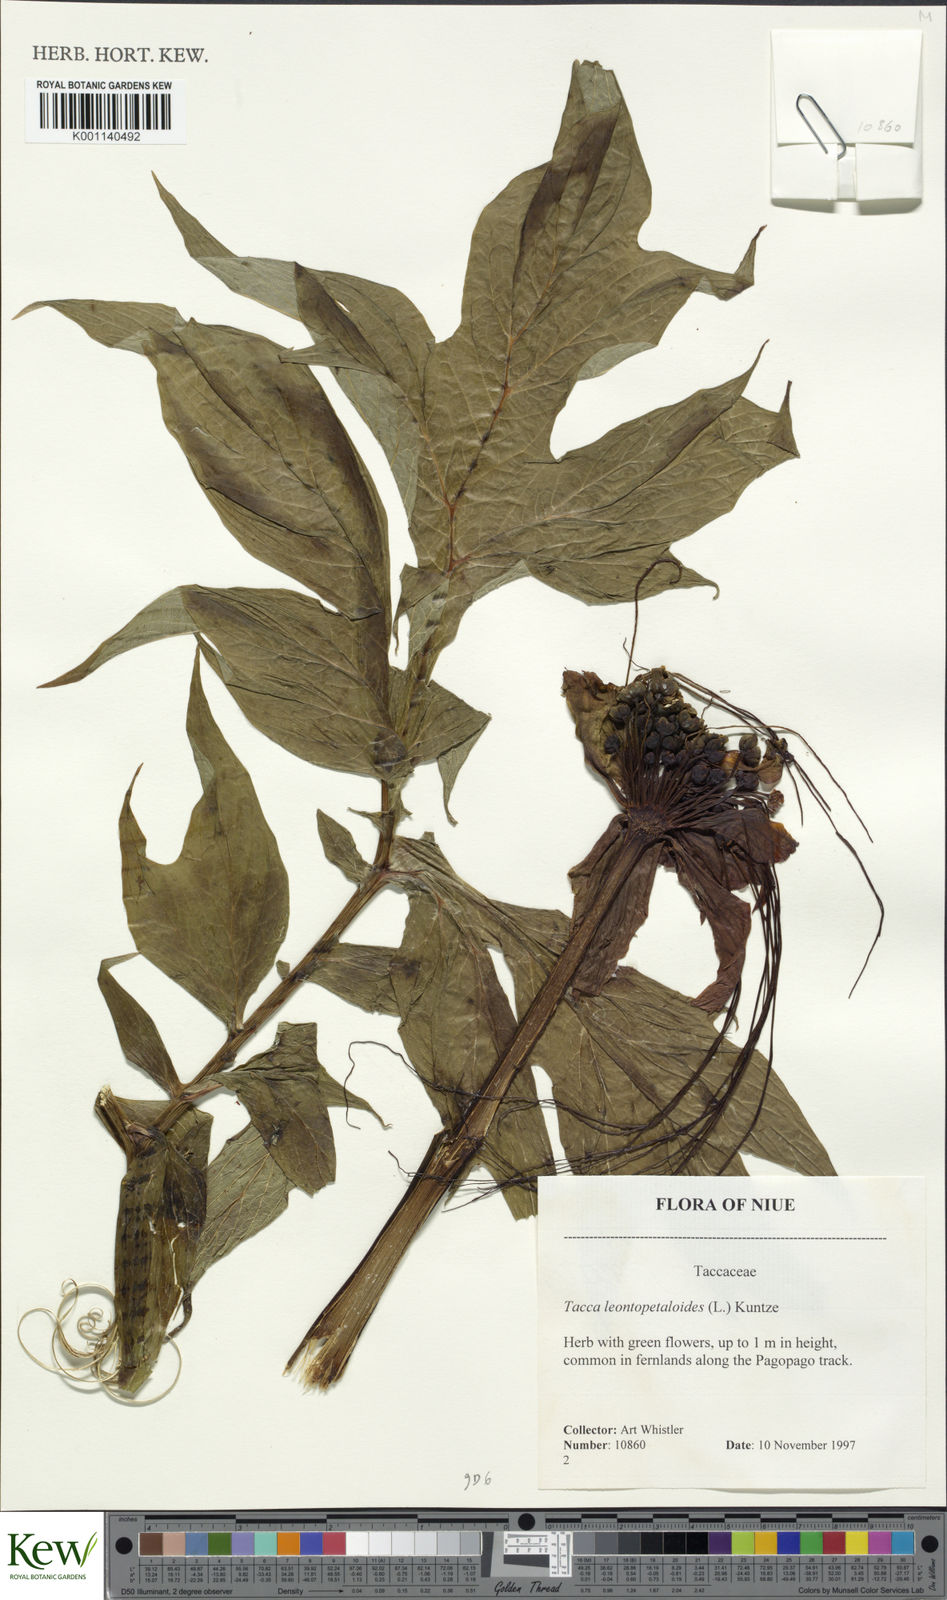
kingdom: Plantae
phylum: Tracheophyta
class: Liliopsida
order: Dioscoreales
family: Dioscoreaceae
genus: Tacca
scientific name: Tacca leontopetaloides
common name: Arrowroot
